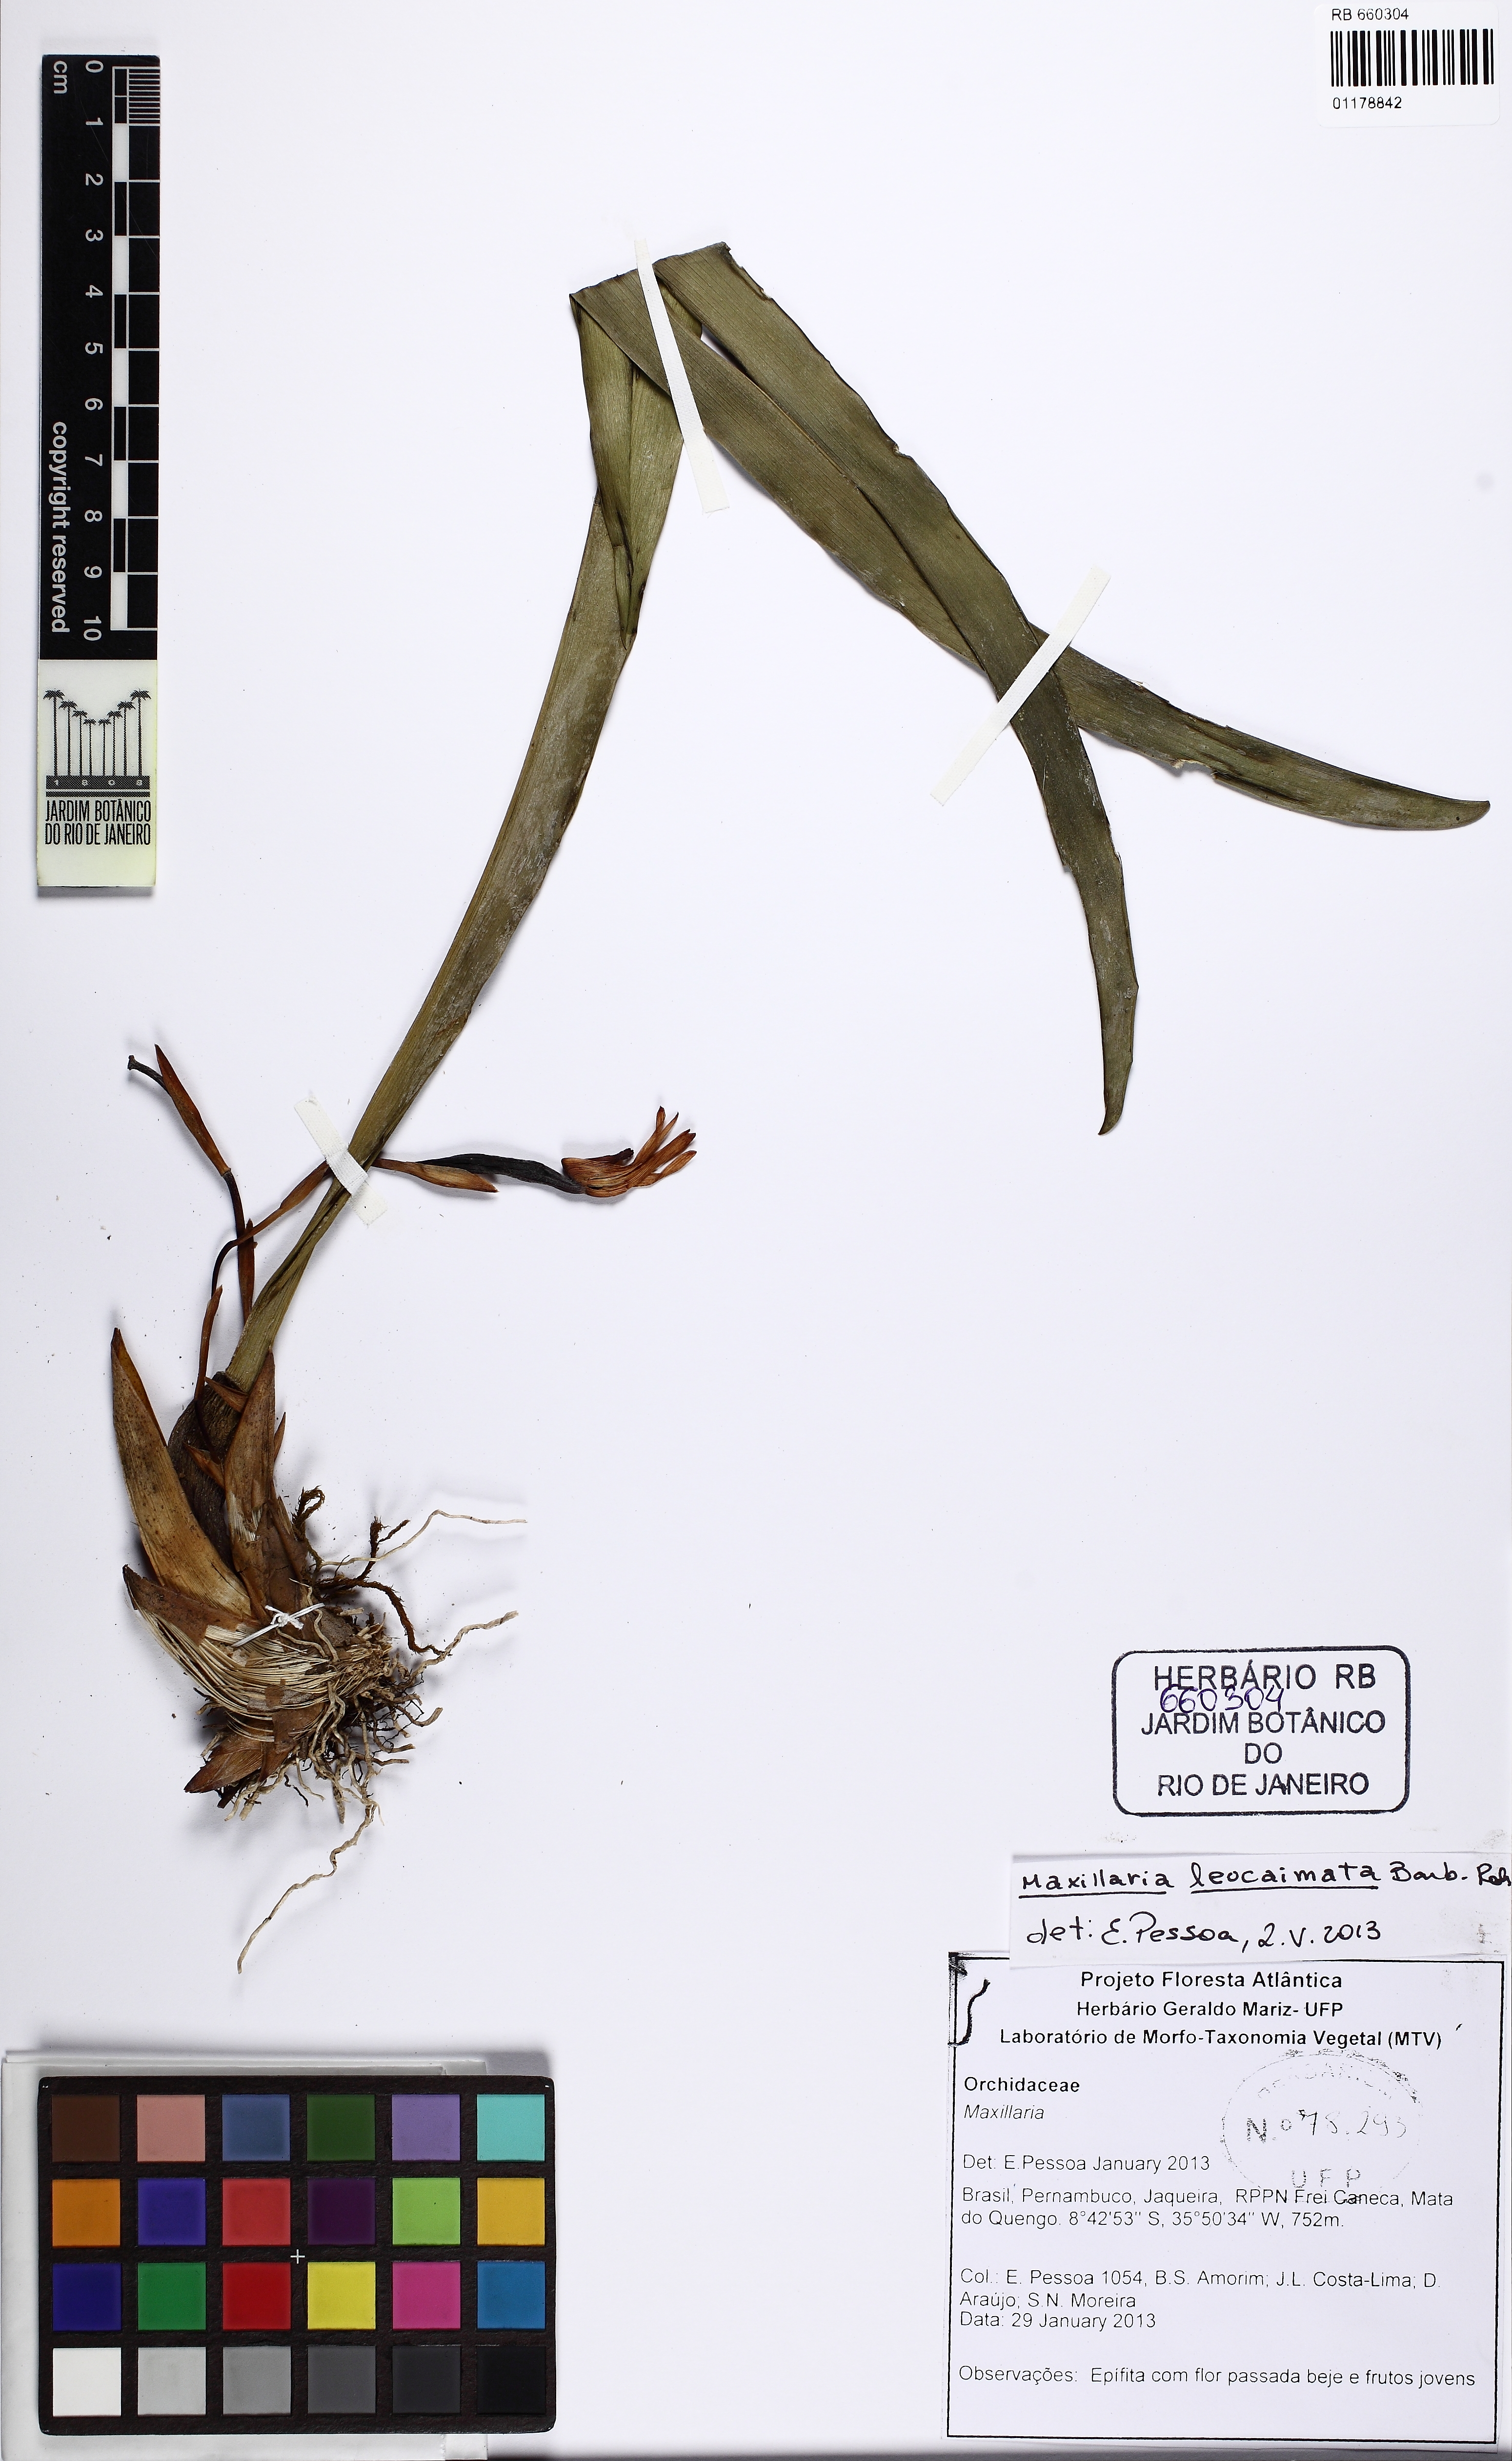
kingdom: Plantae
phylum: Tracheophyta
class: Liliopsida
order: Asparagales
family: Orchidaceae
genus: Maxillaria
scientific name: Maxillaria leucaimata
